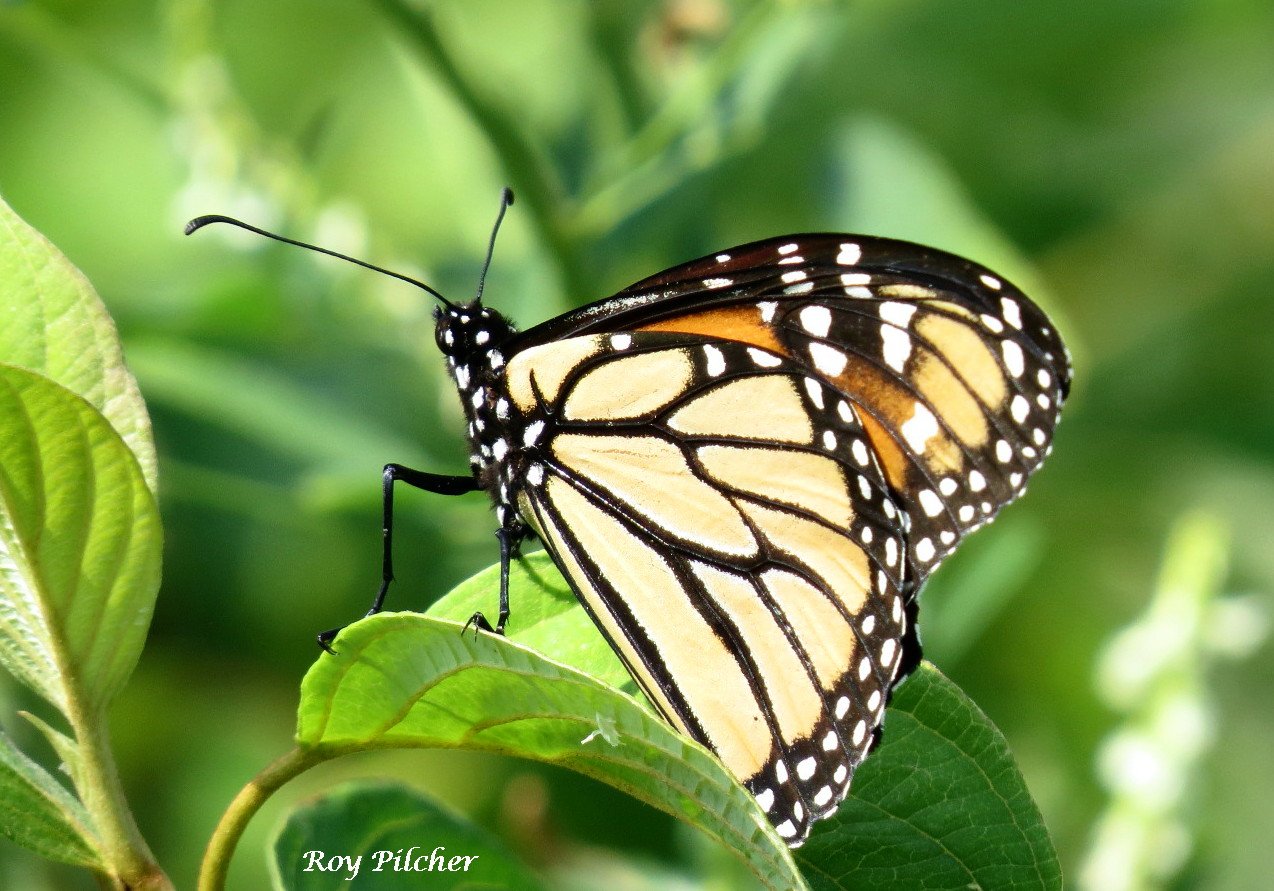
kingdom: Animalia
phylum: Arthropoda
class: Insecta
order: Lepidoptera
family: Nymphalidae
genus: Danaus
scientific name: Danaus plexippus
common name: Monarch
